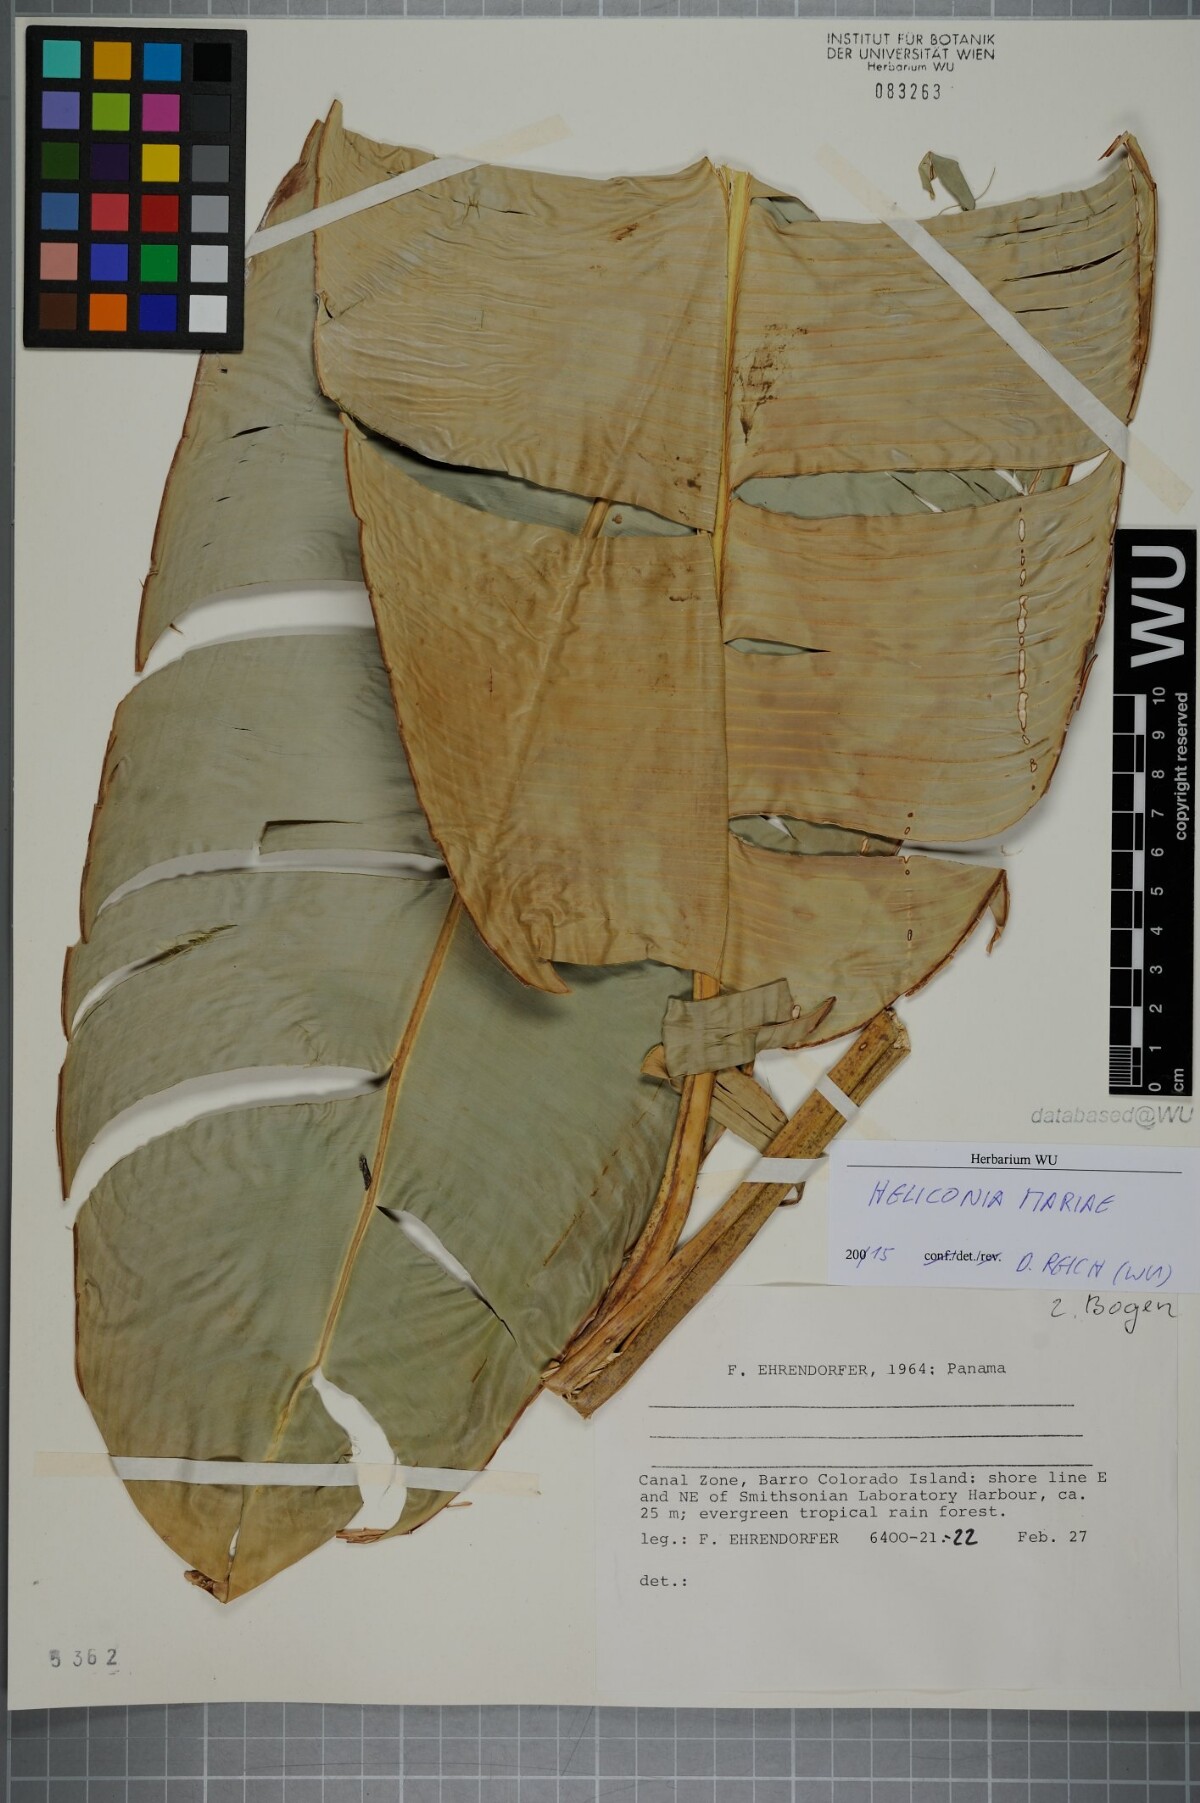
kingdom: Plantae
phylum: Tracheophyta
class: Liliopsida
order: Zingiberales
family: Heliconiaceae
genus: Heliconia
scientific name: Heliconia mariae
